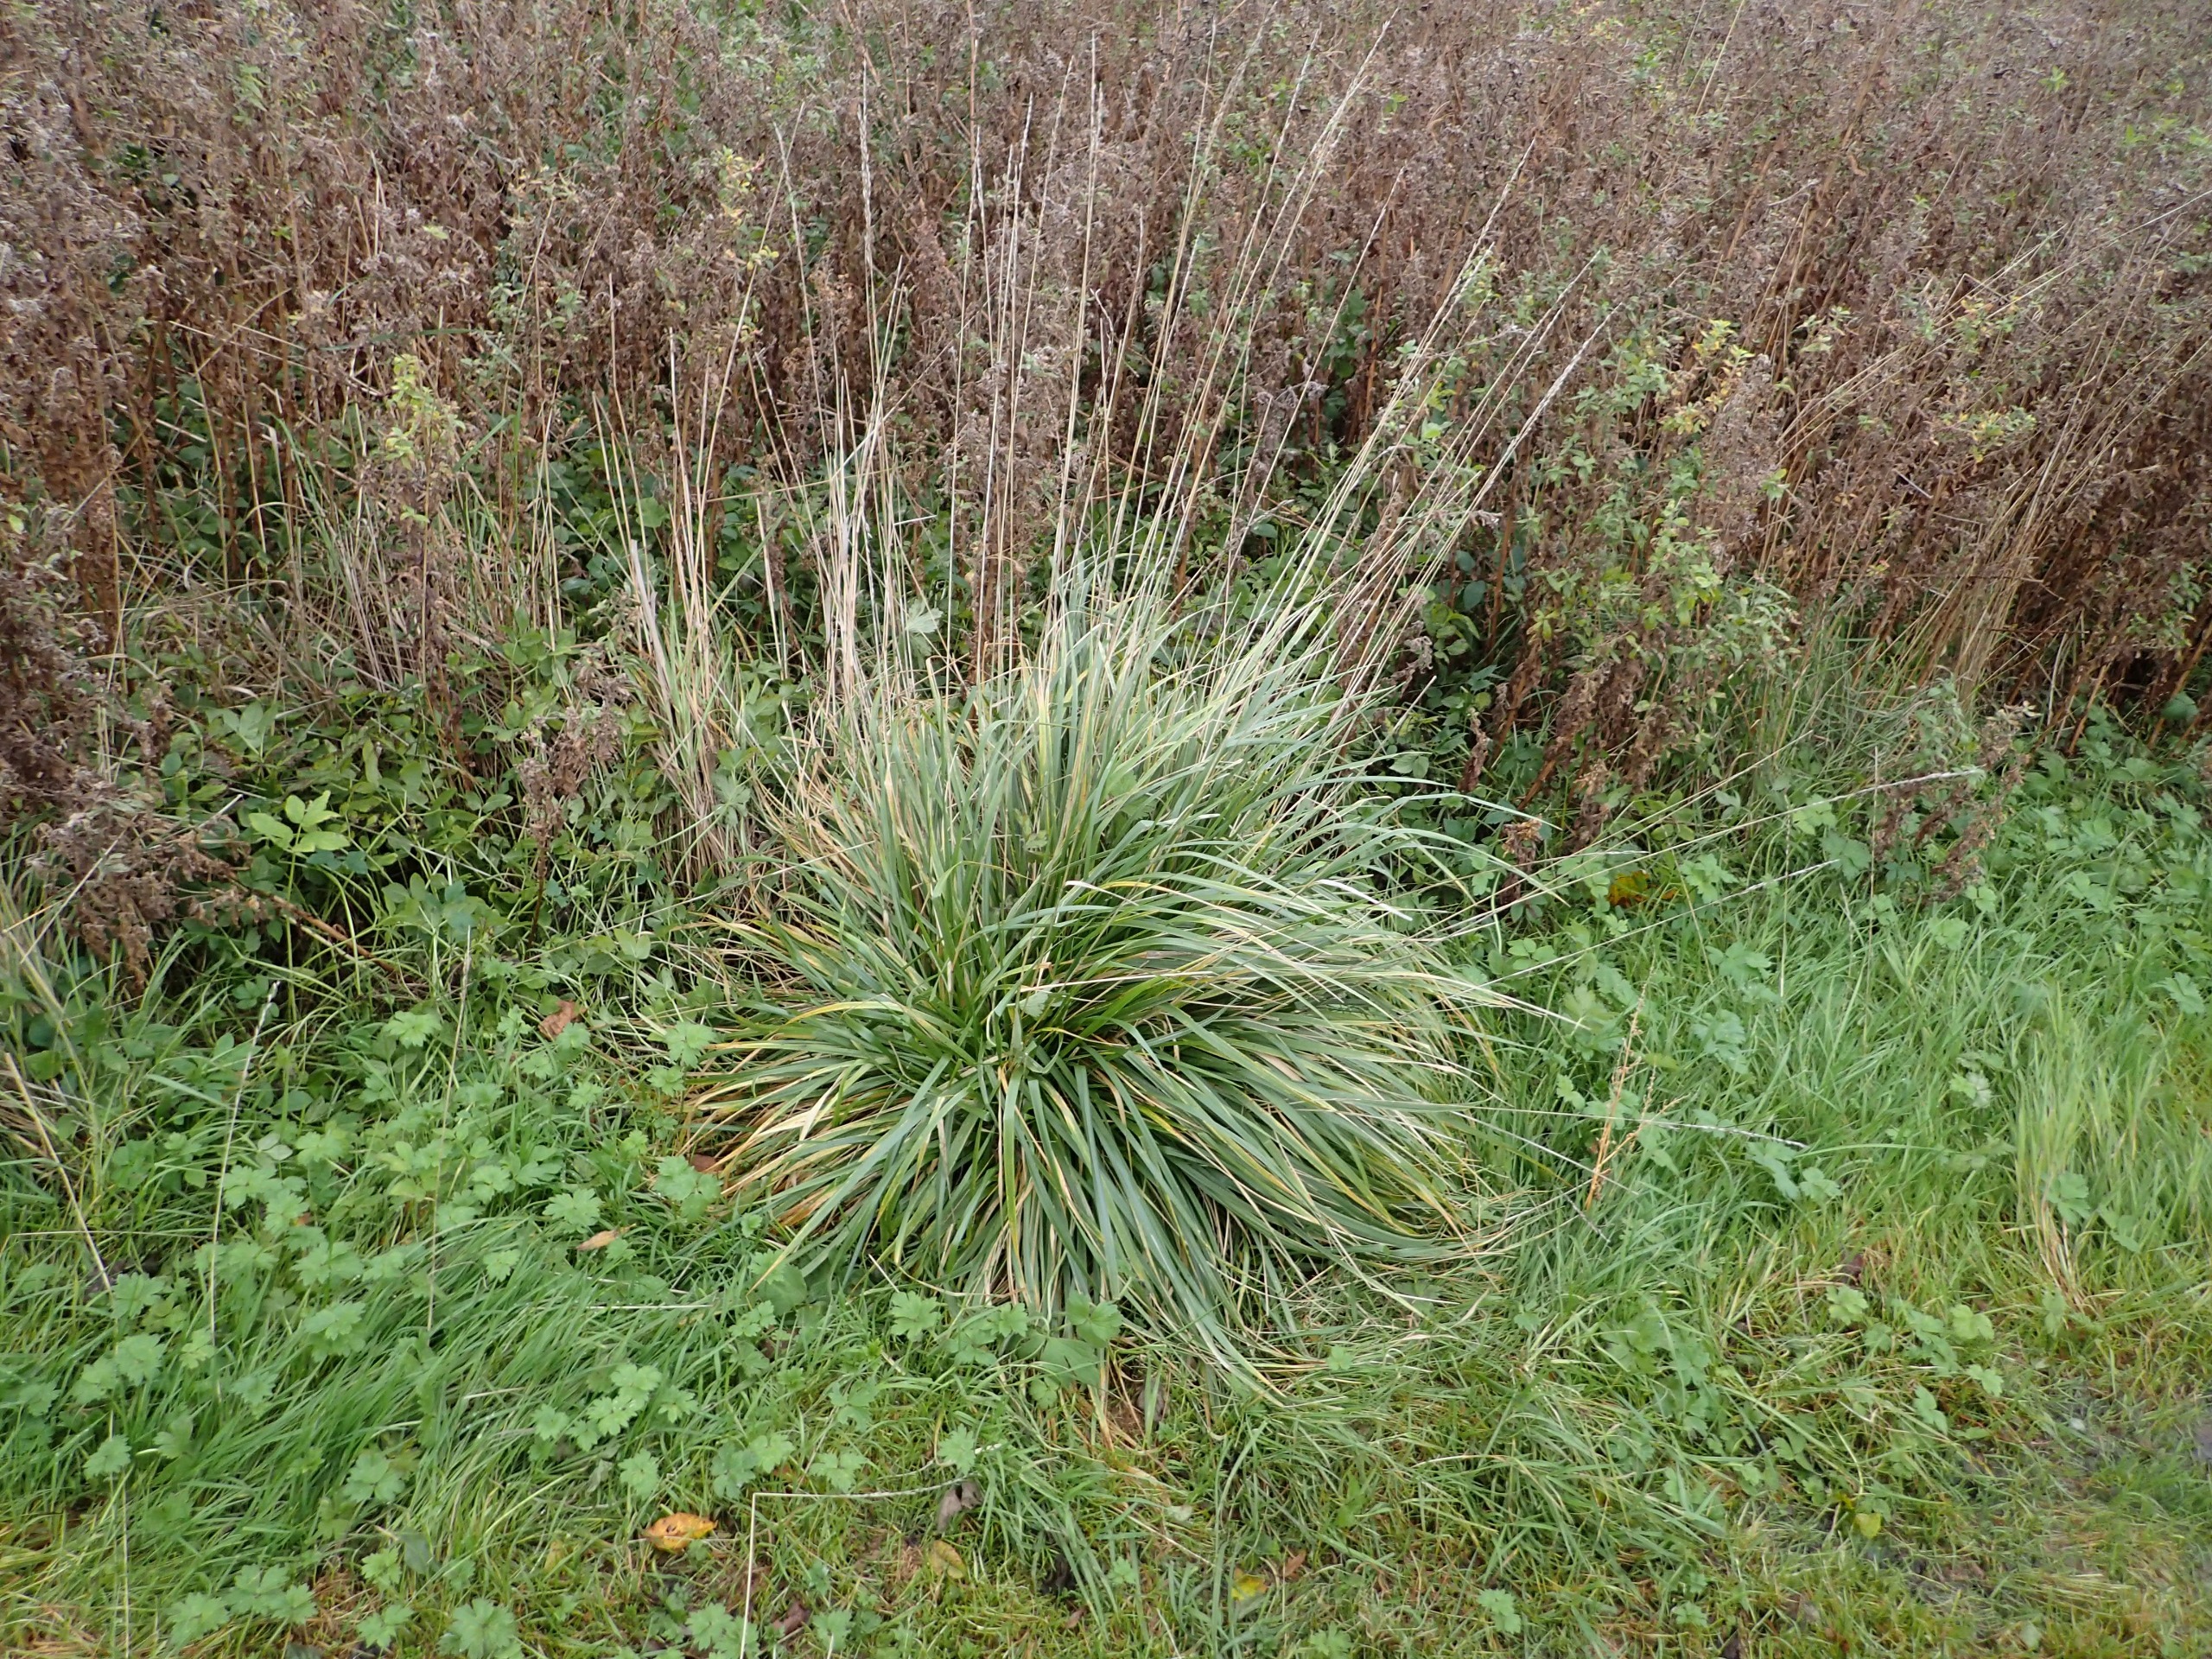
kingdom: Plantae
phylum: Tracheophyta
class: Liliopsida
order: Poales
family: Poaceae
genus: Lolium
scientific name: Lolium arundinaceum
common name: Strand-svingel
